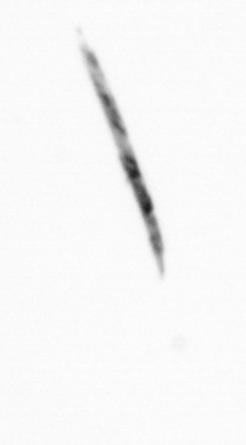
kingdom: Bacteria
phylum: Cyanobacteria
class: Cyanobacteriia
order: Cyanobacteriales
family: Microcoleaceae
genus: Trichodesmium
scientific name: Trichodesmium
